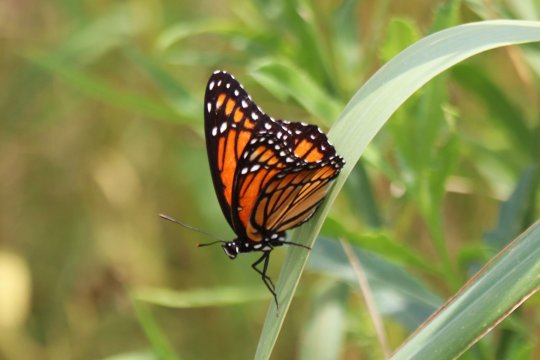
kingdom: Animalia
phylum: Arthropoda
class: Insecta
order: Lepidoptera
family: Nymphalidae
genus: Limenitis
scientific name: Limenitis archippus
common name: Viceroy
